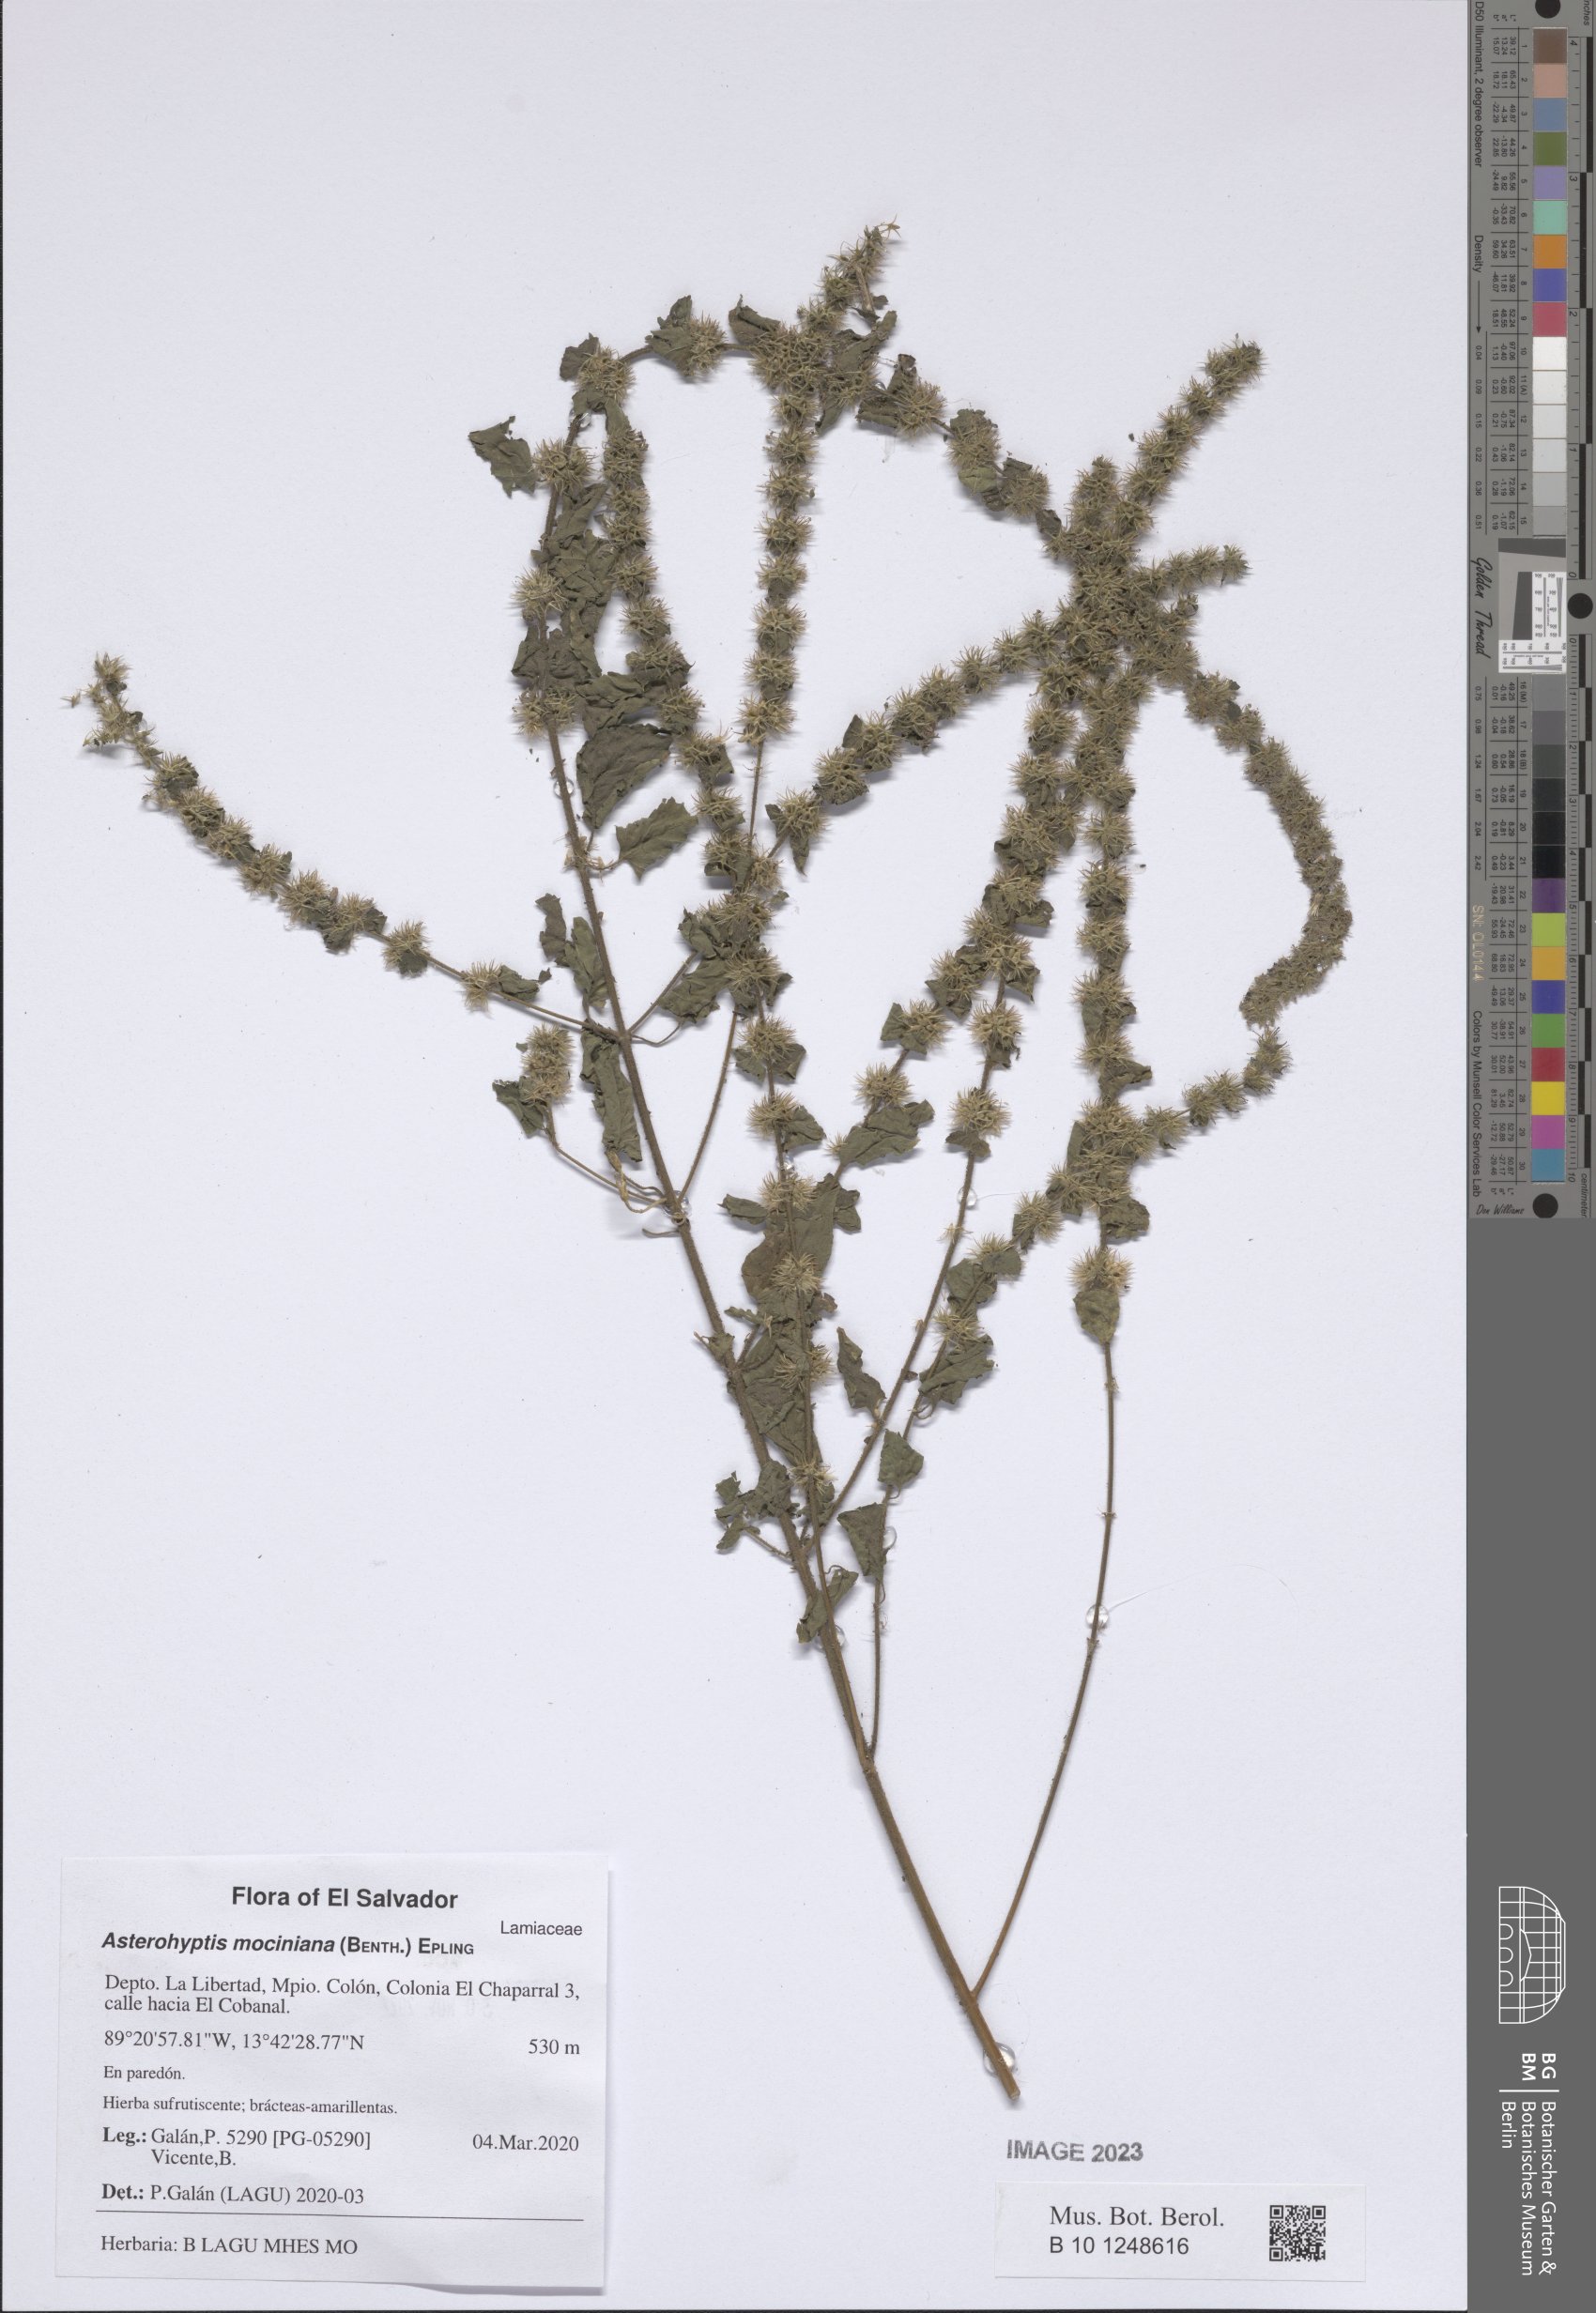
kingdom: Plantae
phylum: Tracheophyta
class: Magnoliopsida
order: Lamiales
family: Lamiaceae
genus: Asterohyptis
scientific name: Asterohyptis mociniana
